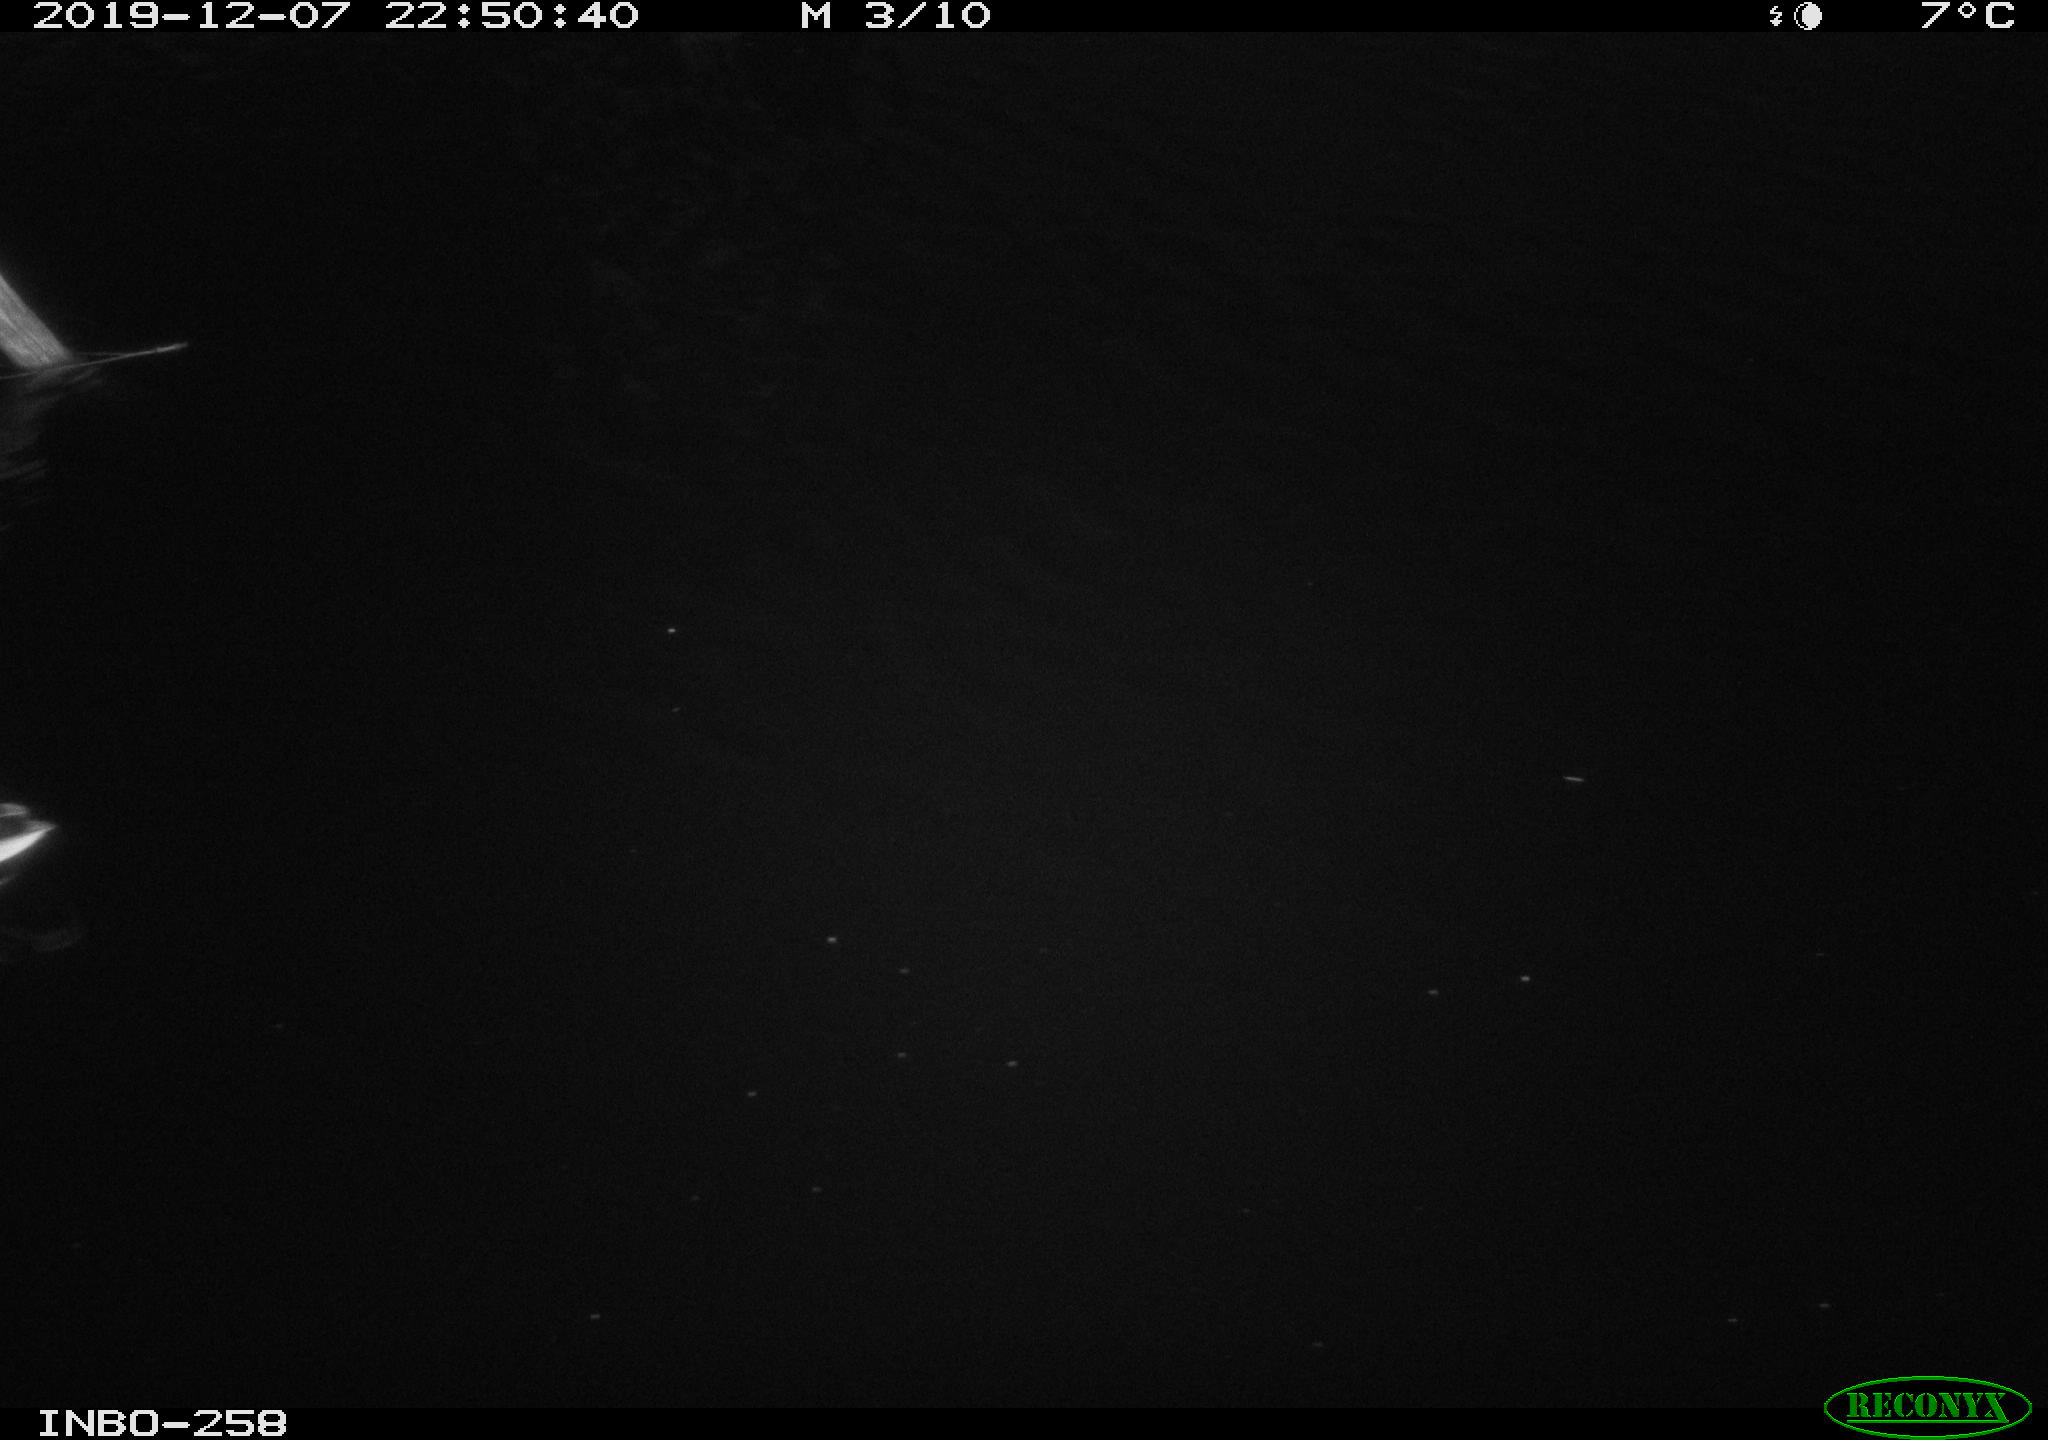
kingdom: Animalia
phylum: Chordata
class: Aves
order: Anseriformes
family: Anatidae
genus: Anas
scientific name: Anas platyrhynchos
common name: Mallard
